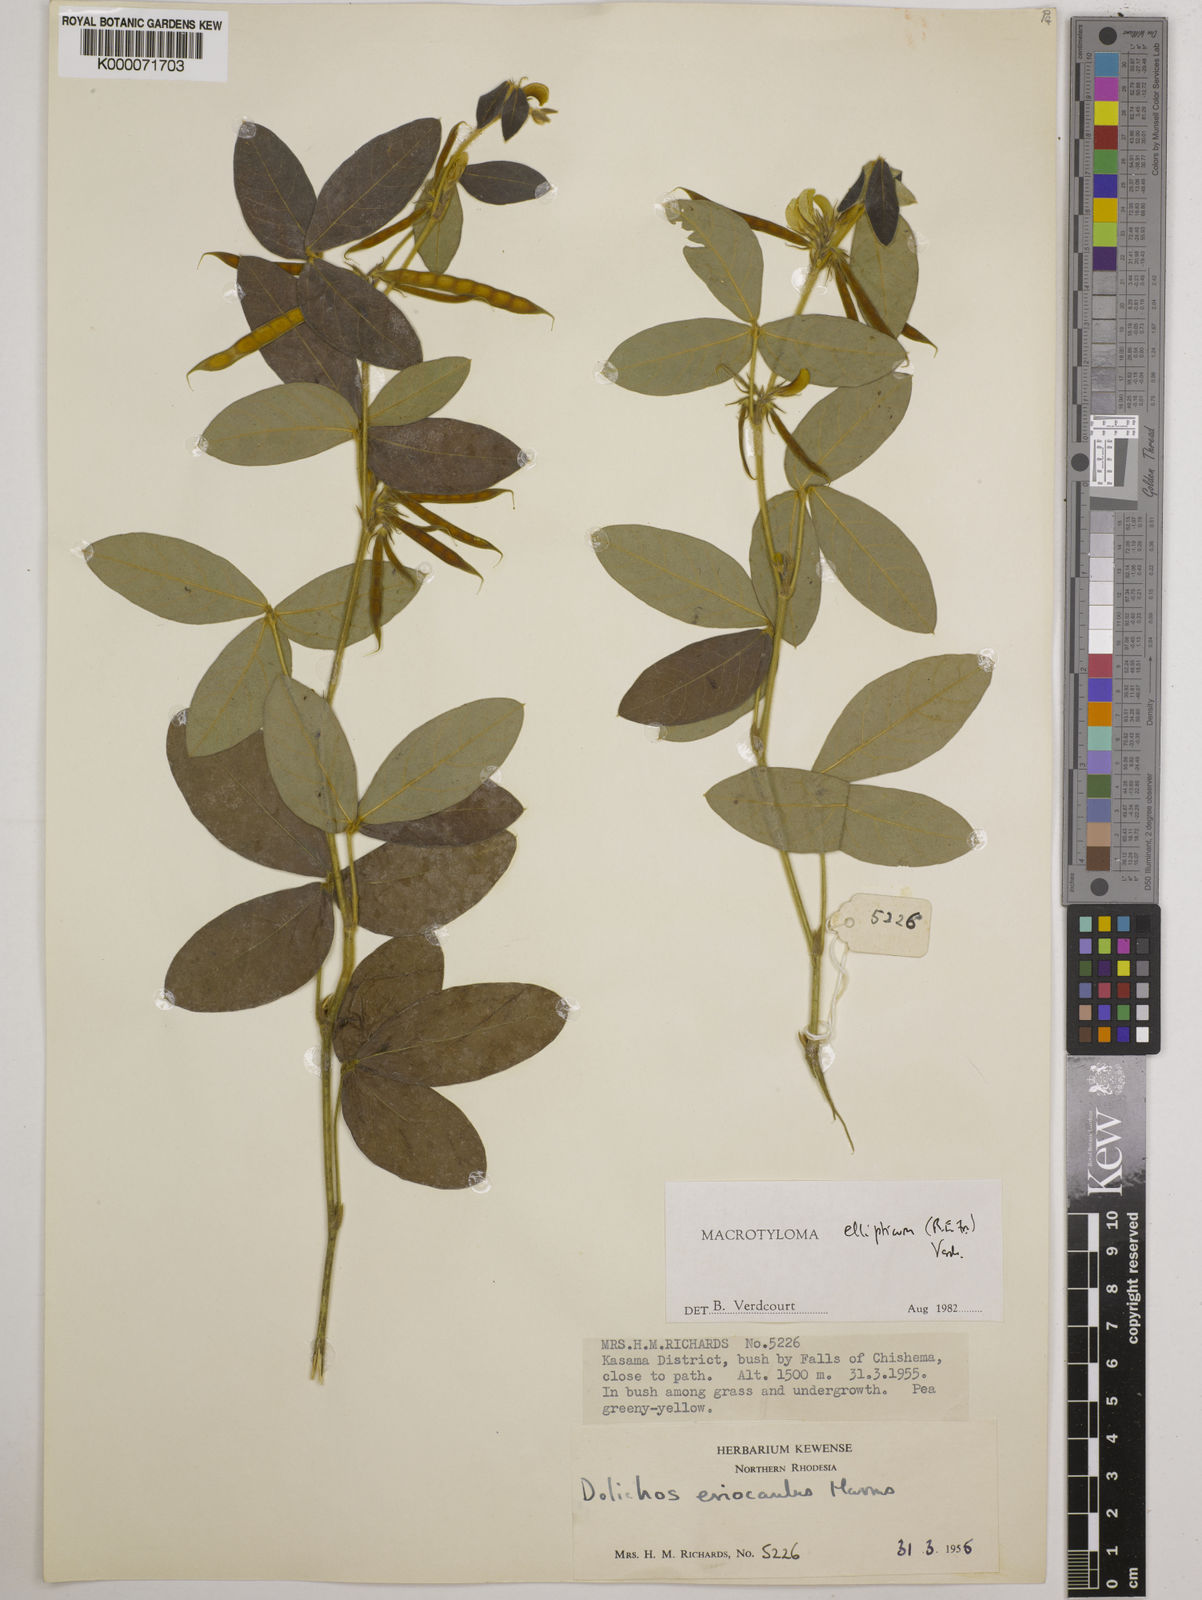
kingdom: Plantae
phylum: Tracheophyta
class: Magnoliopsida
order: Fabales
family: Fabaceae
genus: Macrotyloma
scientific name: Macrotyloma ellipticum
